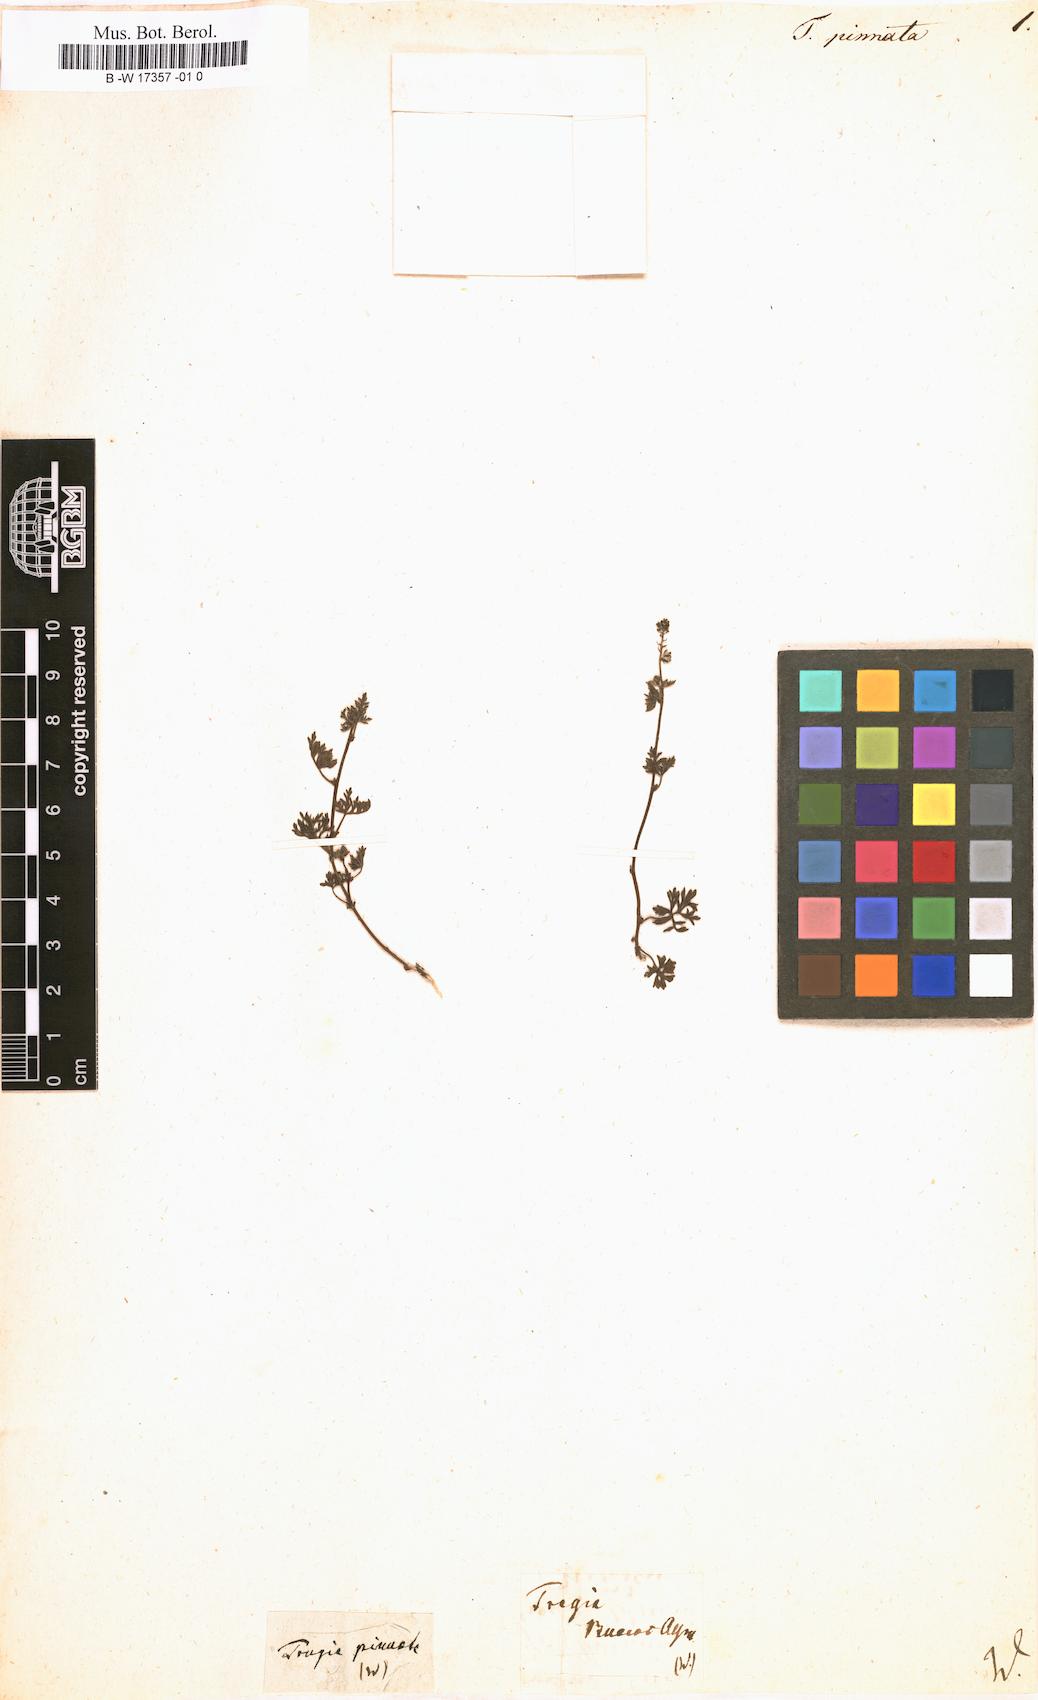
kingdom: Plantae
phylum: Tracheophyta
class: Magnoliopsida
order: Malpighiales
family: Euphorbiaceae
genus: Tragia
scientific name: Tragia pinnata
